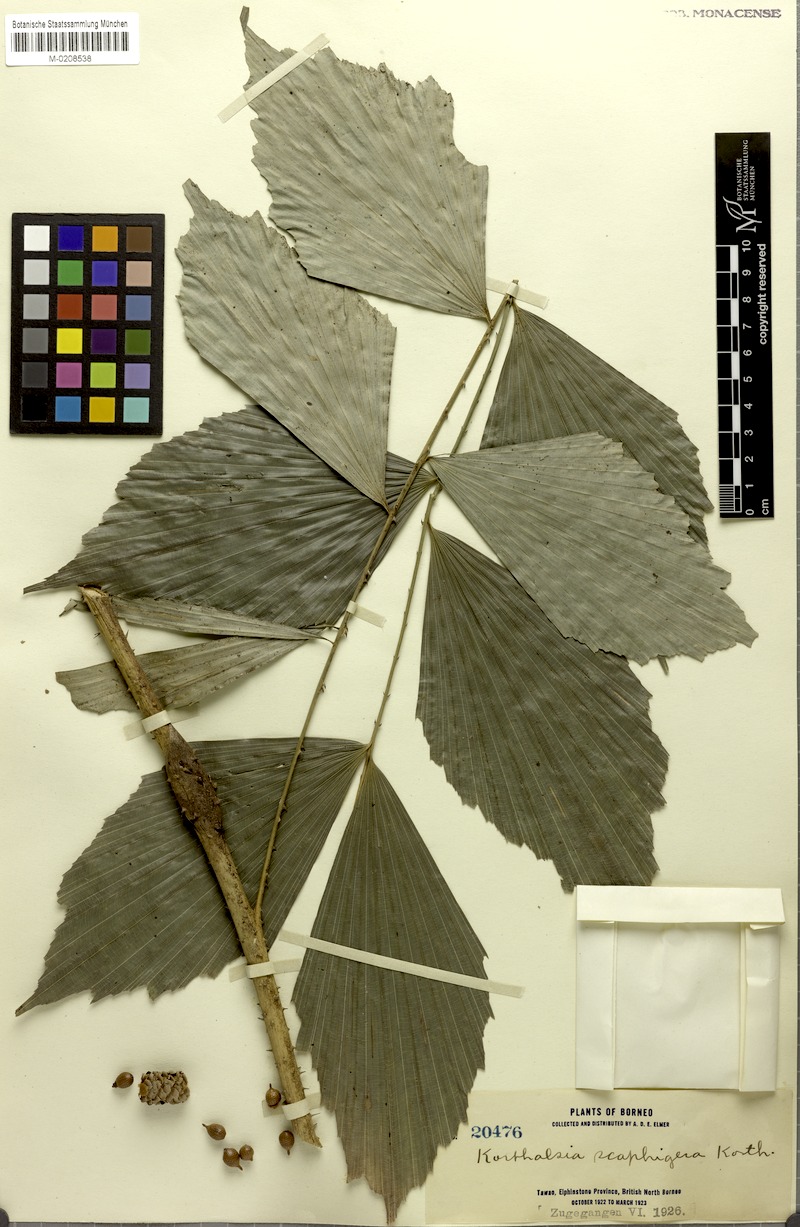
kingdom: Plantae
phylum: Tracheophyta
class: Liliopsida
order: Arecales
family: Arecaceae
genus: Korthalsia
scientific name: Korthalsia rostrata
